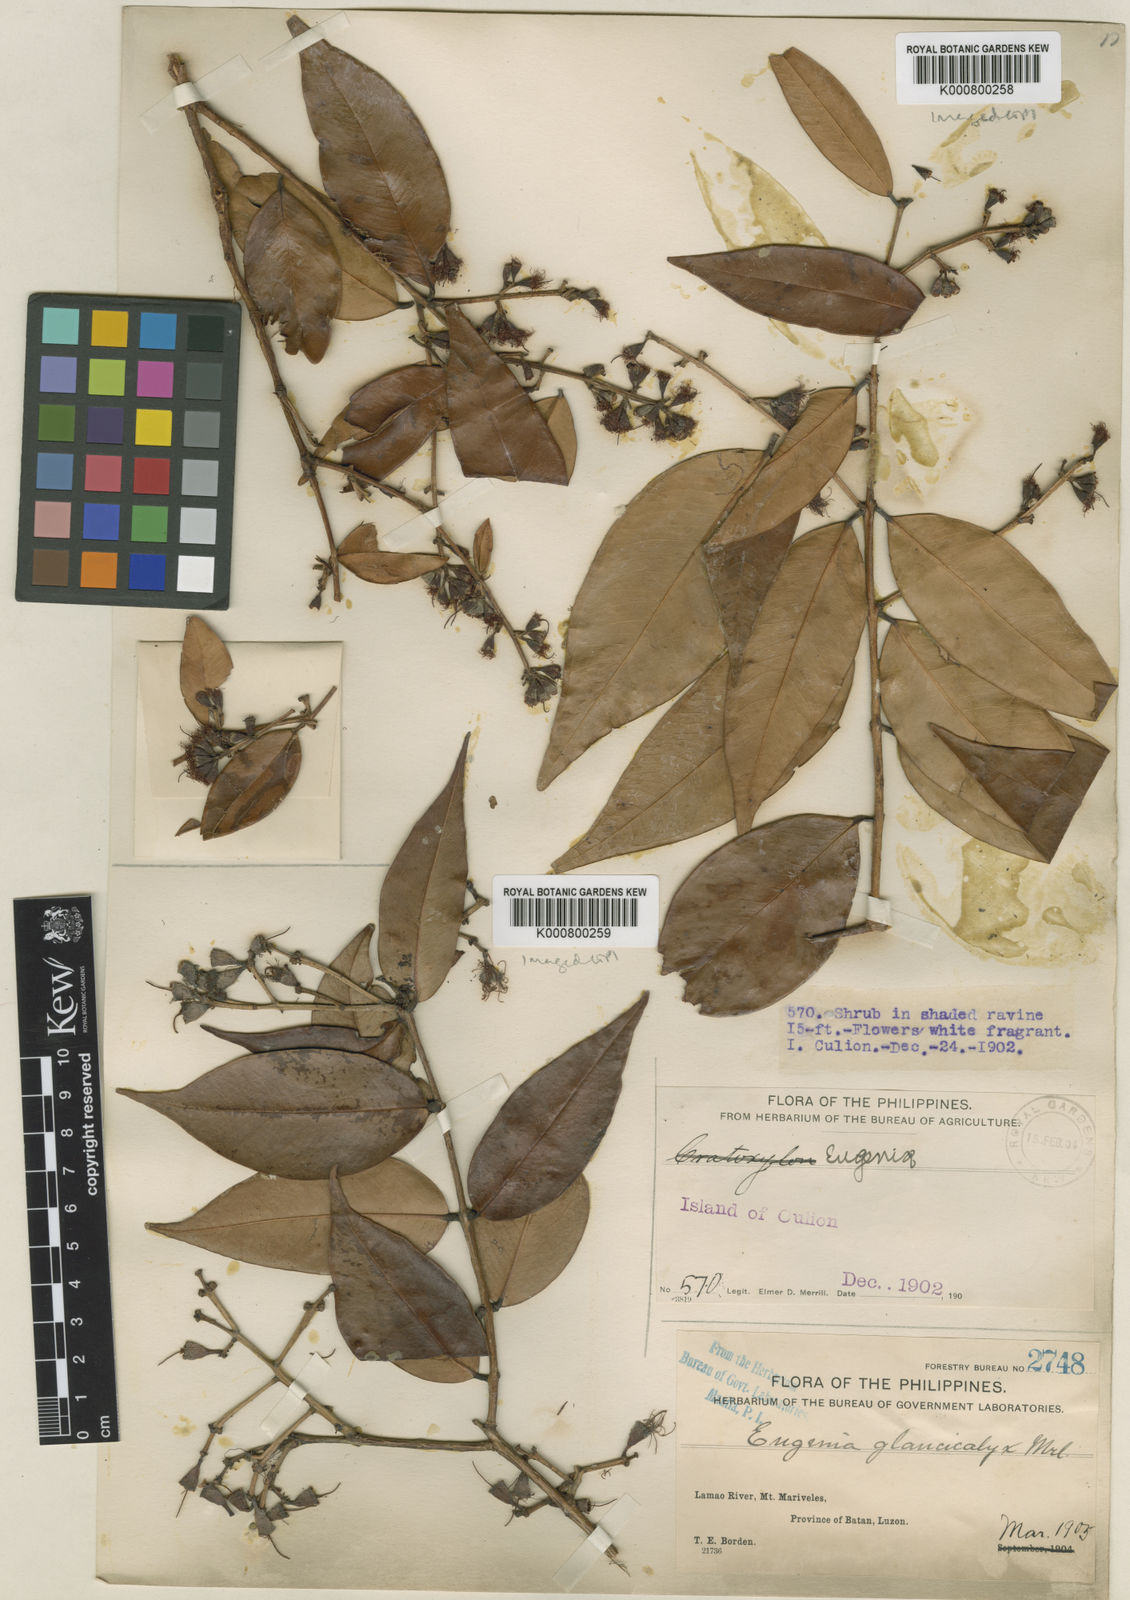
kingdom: Plantae
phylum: Tracheophyta
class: Magnoliopsida
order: Myrtales
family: Myrtaceae
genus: Syzygium
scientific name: Syzygium antisepticum
